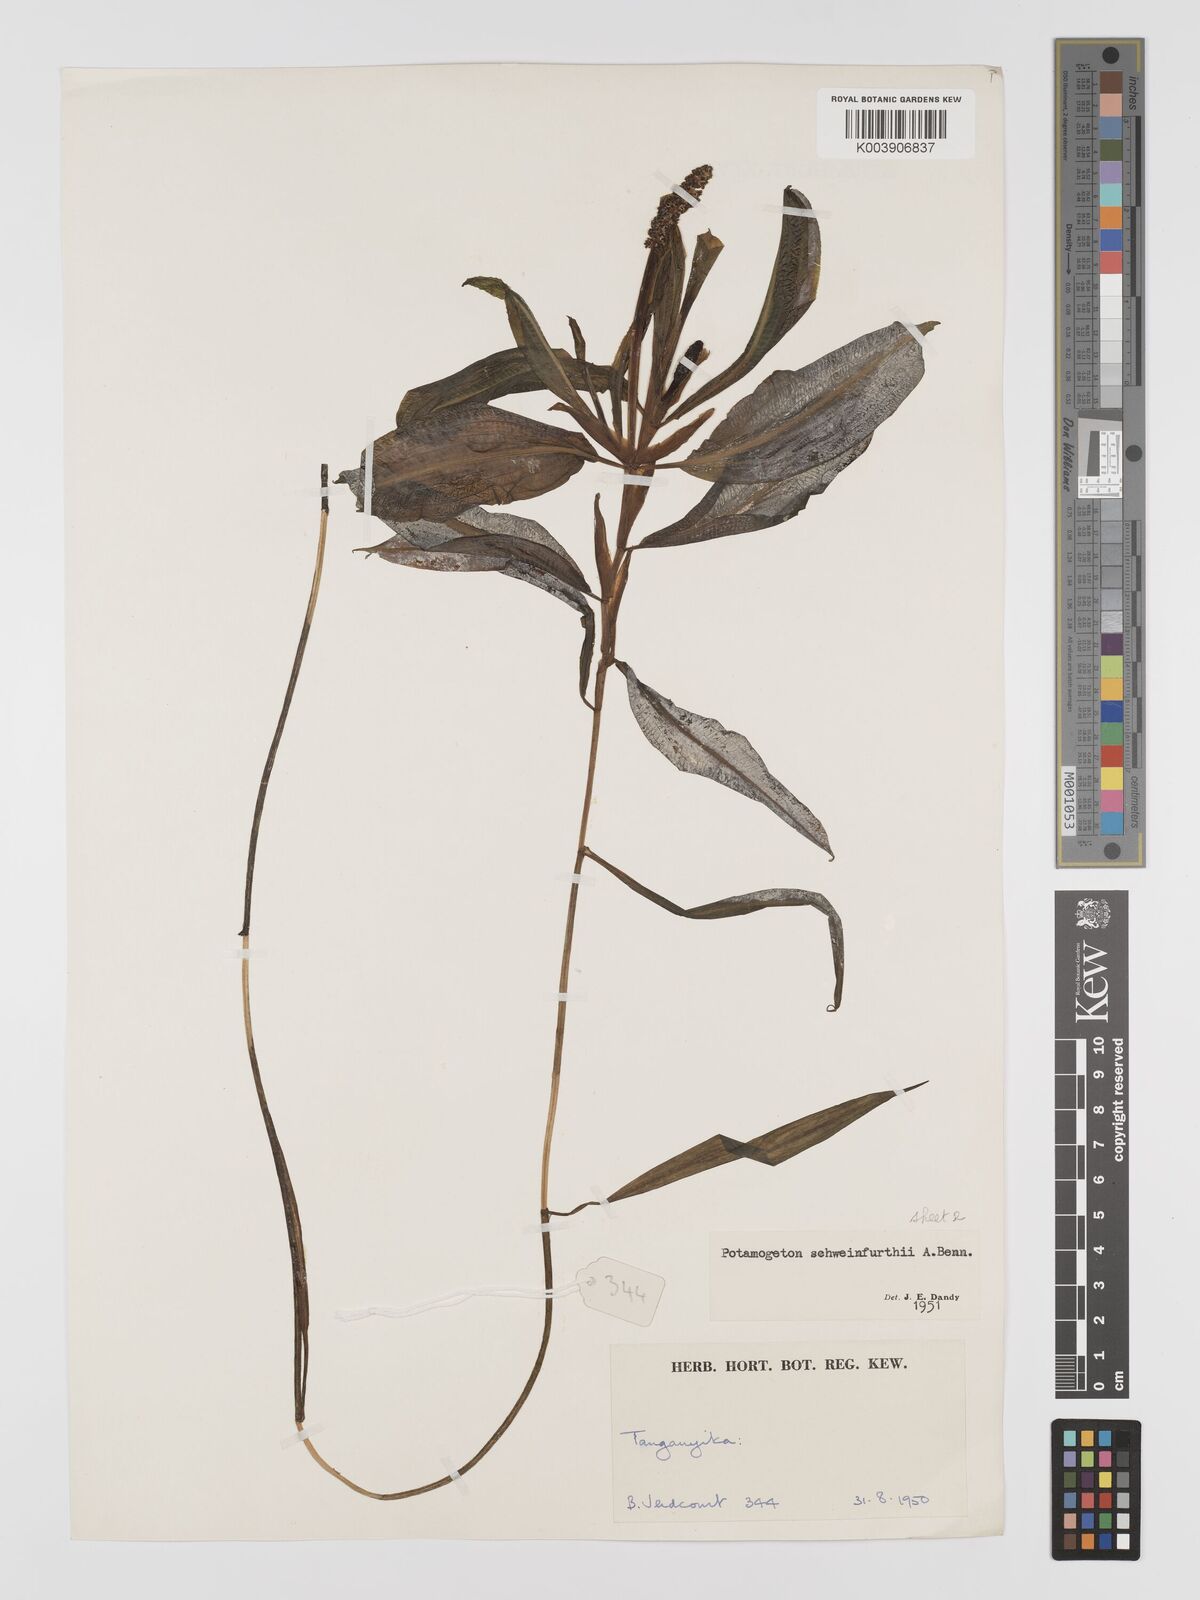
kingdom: Plantae
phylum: Tracheophyta
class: Liliopsida
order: Alismatales
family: Potamogetonaceae
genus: Potamogeton
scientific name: Potamogeton schweinfurthii
